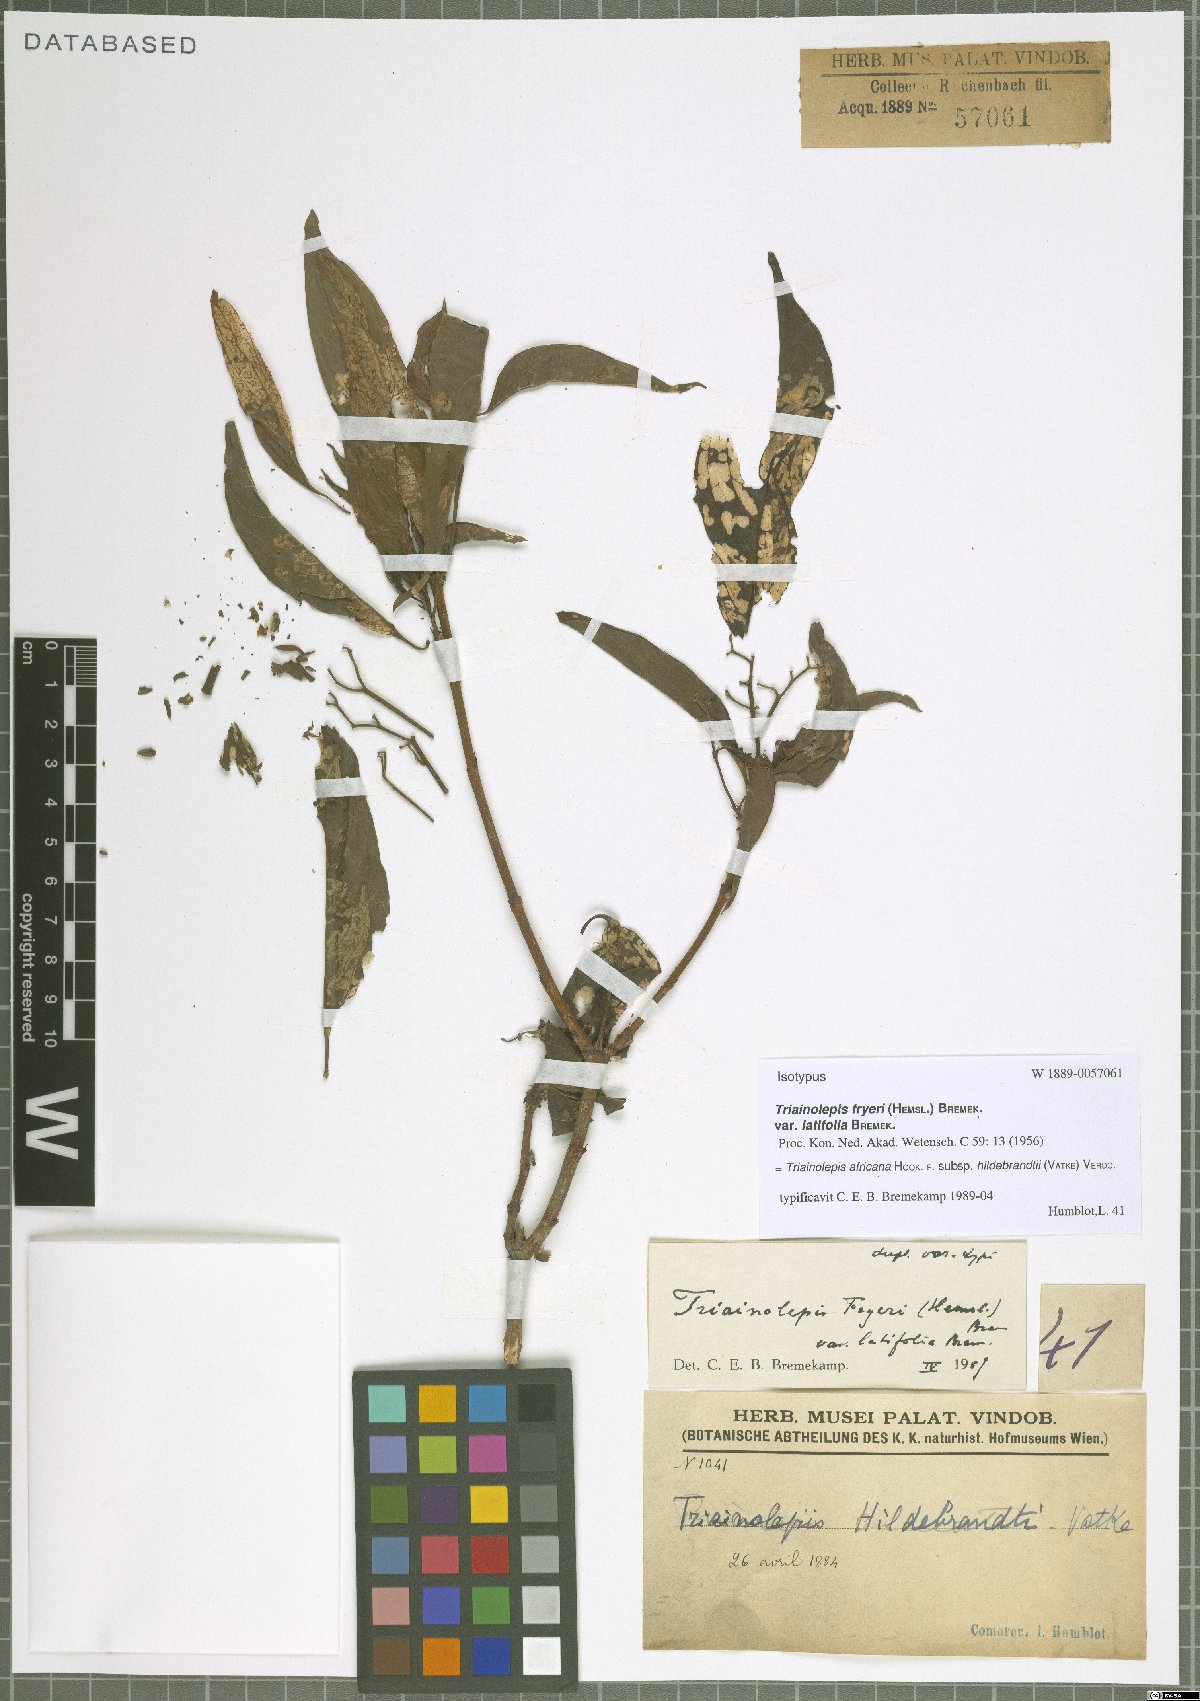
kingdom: Plantae
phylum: Tracheophyta
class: Magnoliopsida
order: Gentianales
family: Rubiaceae
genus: Triainolepis
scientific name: Triainolepis africana
